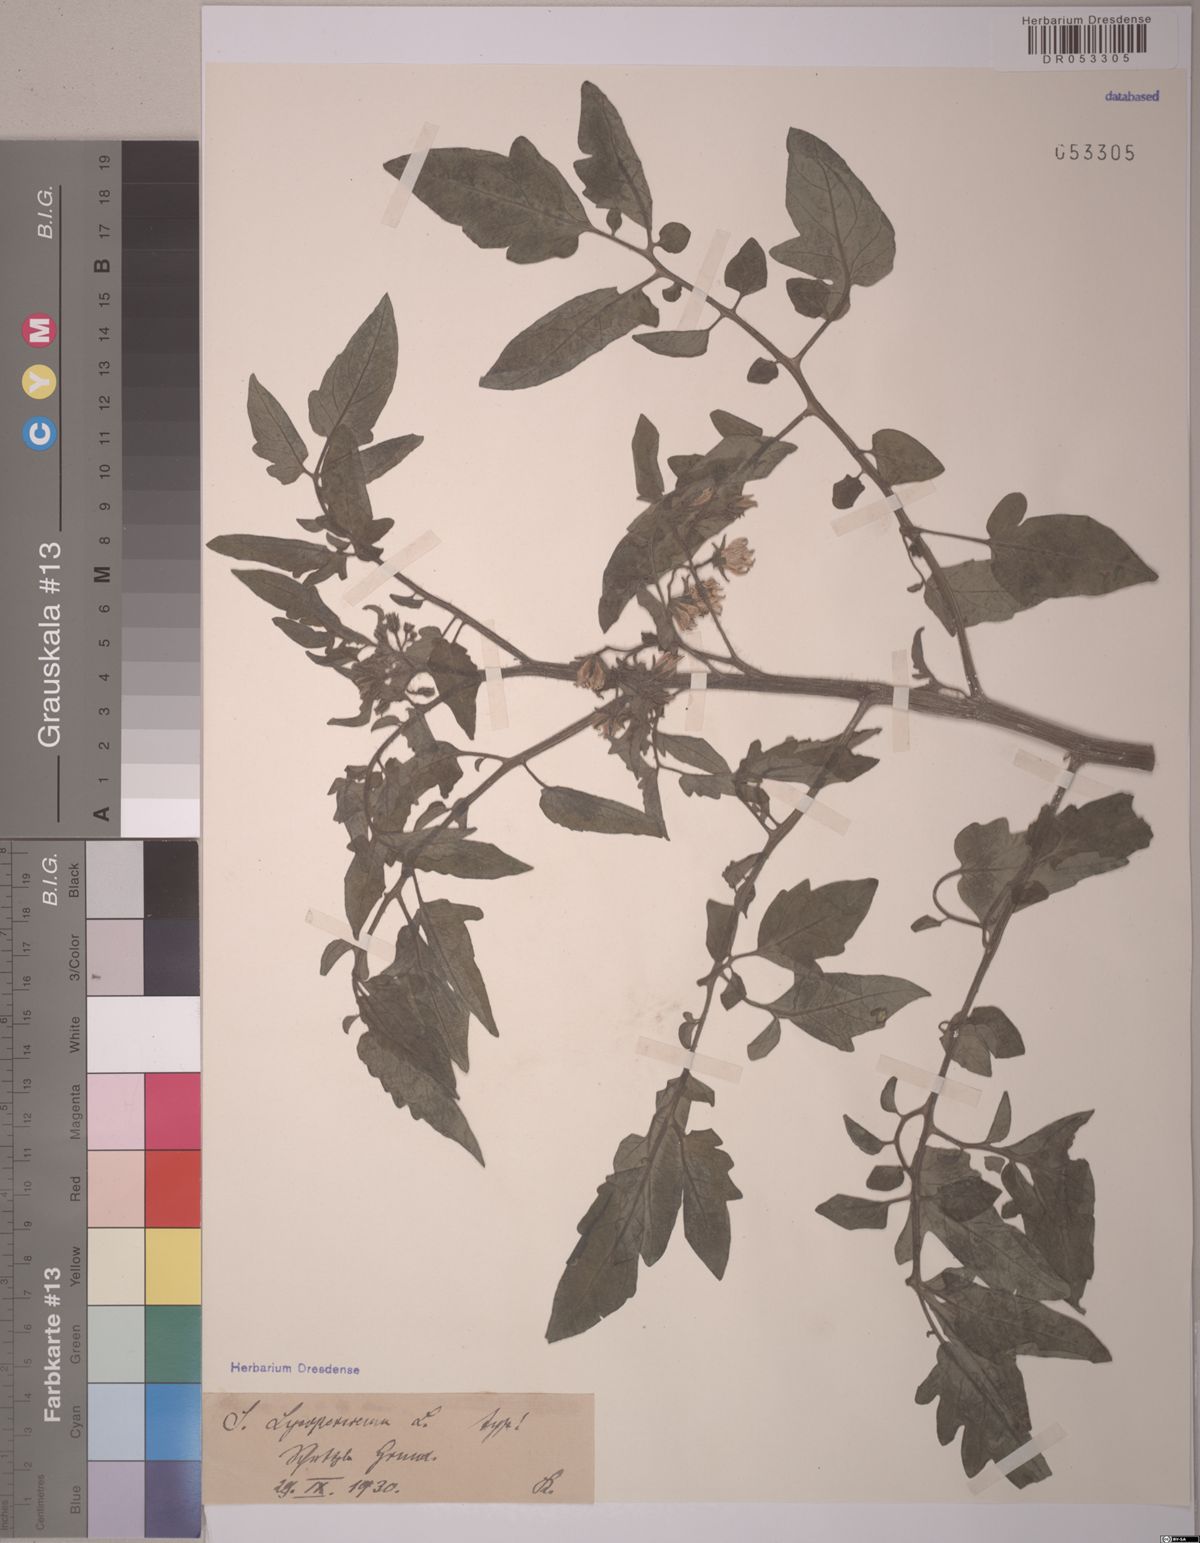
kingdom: Plantae
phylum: Tracheophyta
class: Magnoliopsida
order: Solanales
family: Solanaceae
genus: Solanum
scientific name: Solanum lycopersicum
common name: Garden tomato
